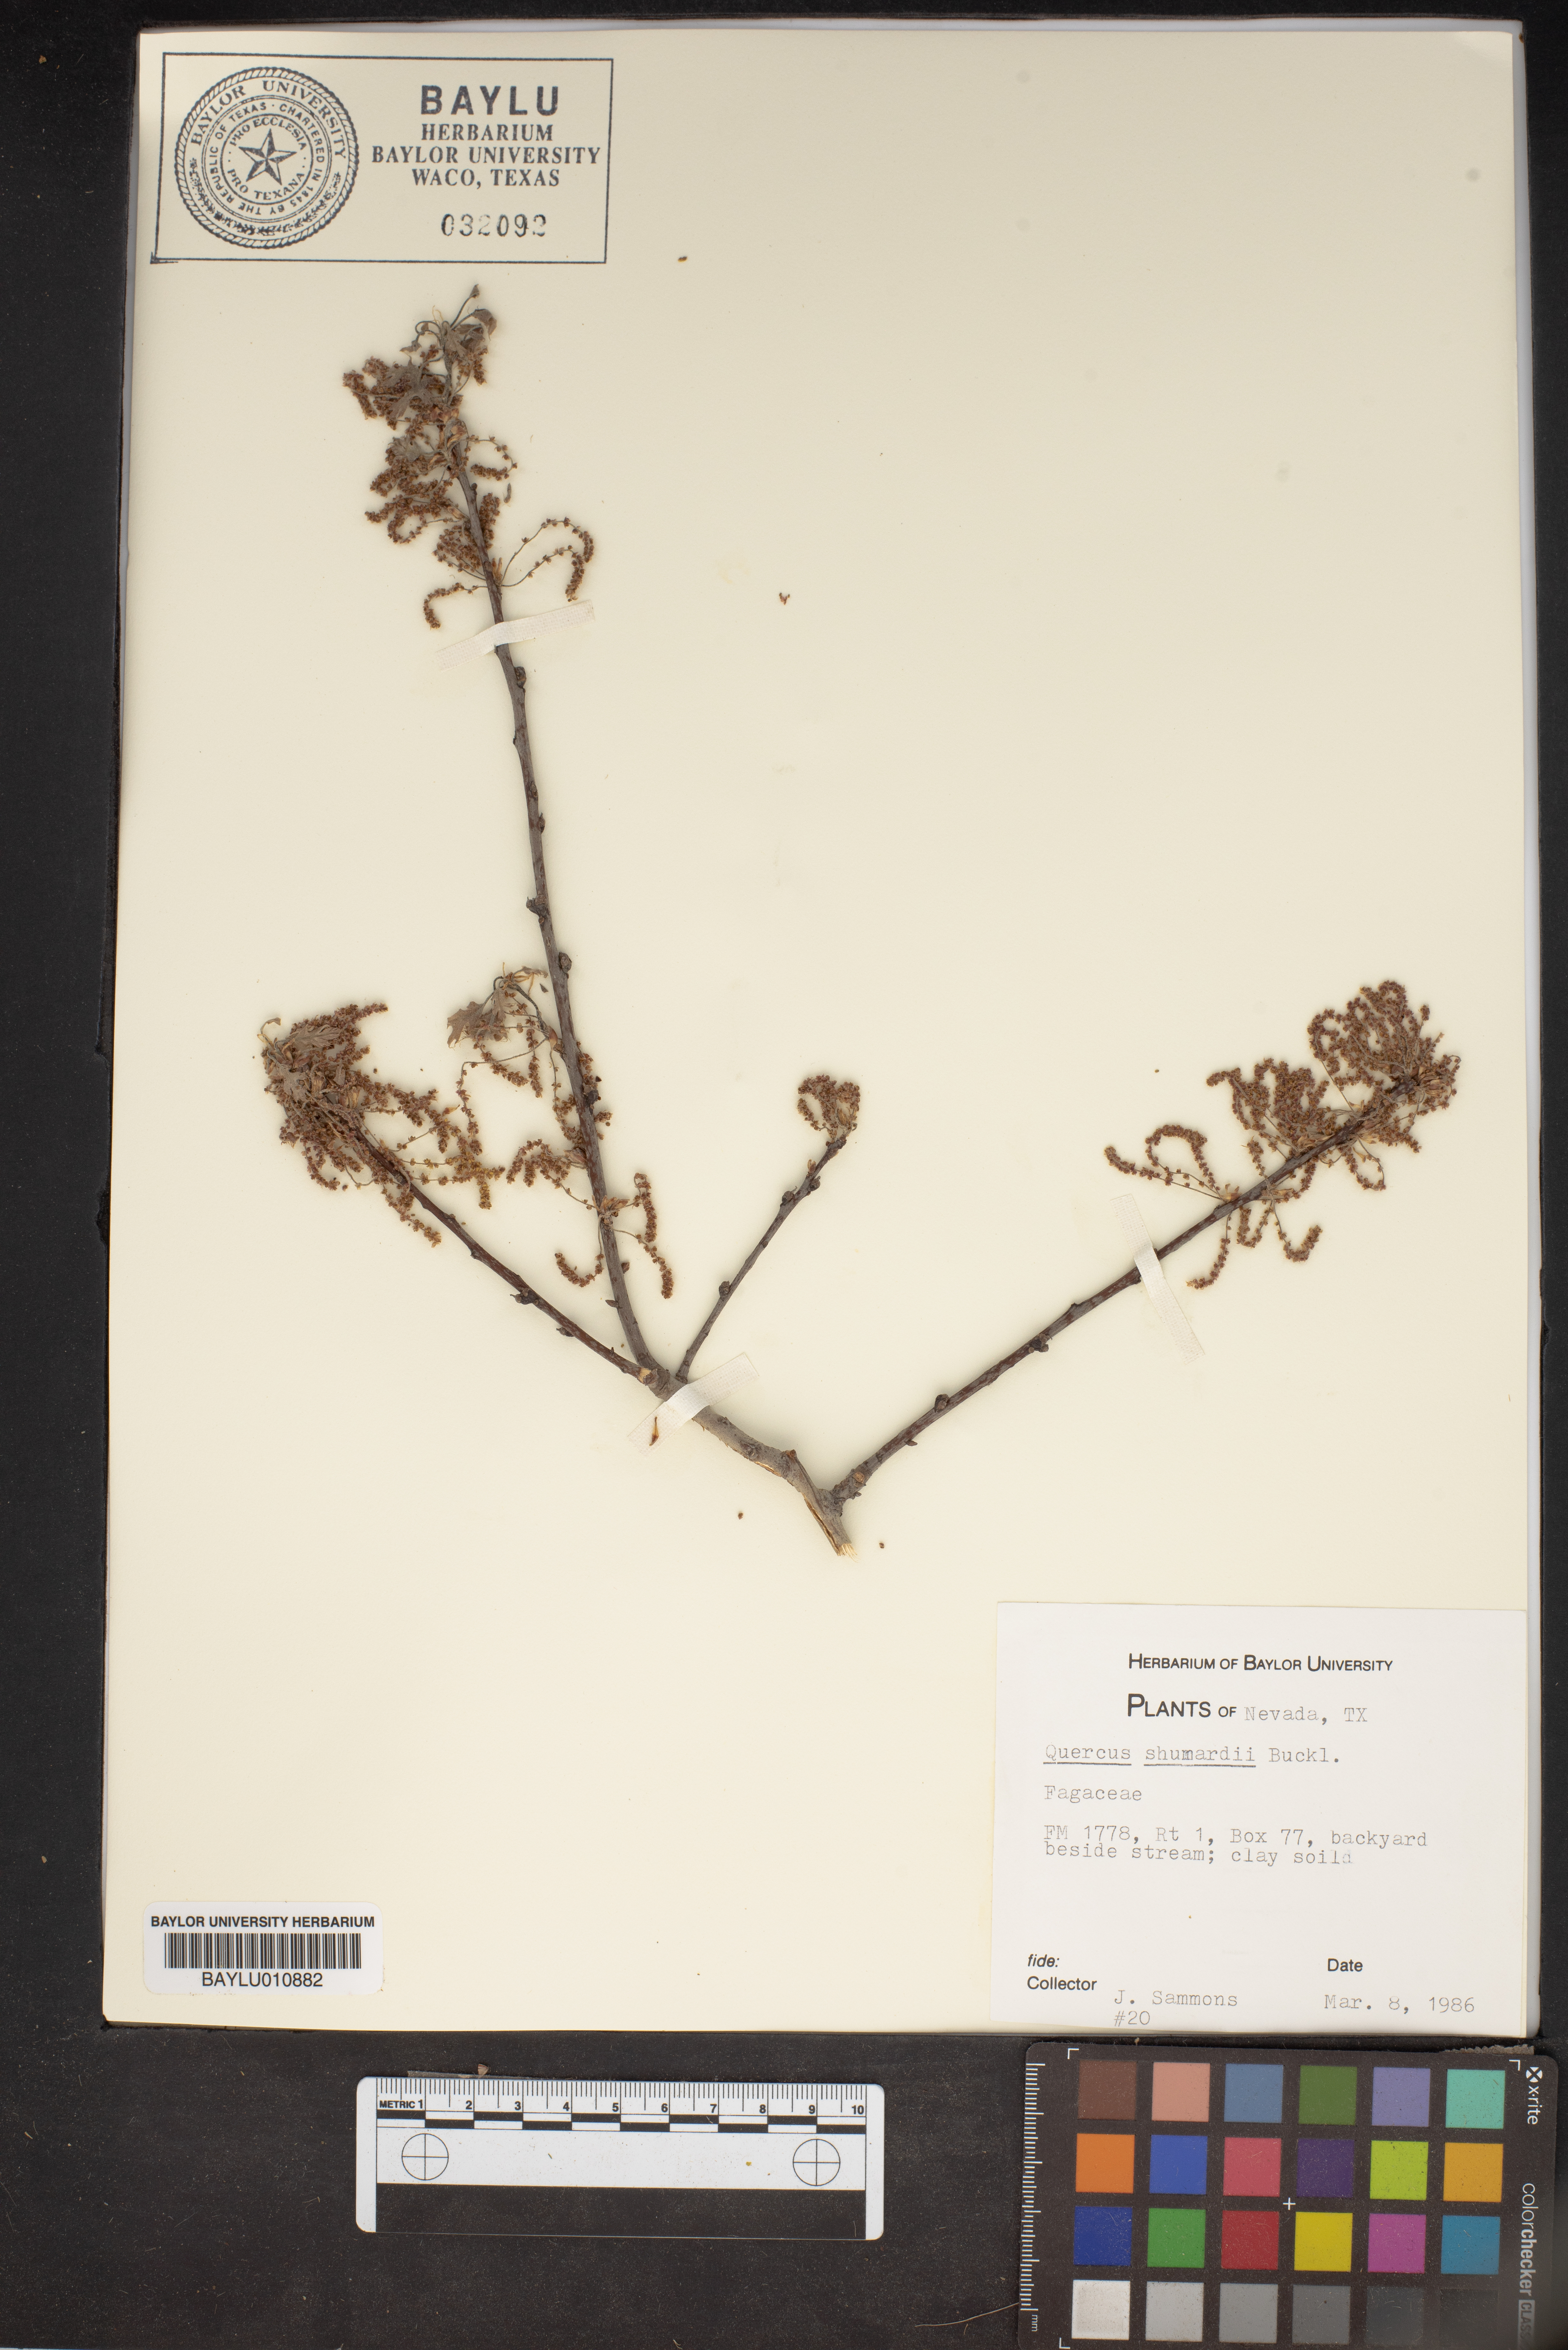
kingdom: Plantae
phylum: Tracheophyta
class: Magnoliopsida
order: Fagales
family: Fagaceae
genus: Quercus
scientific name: Quercus shumardii
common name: Shumard oak
